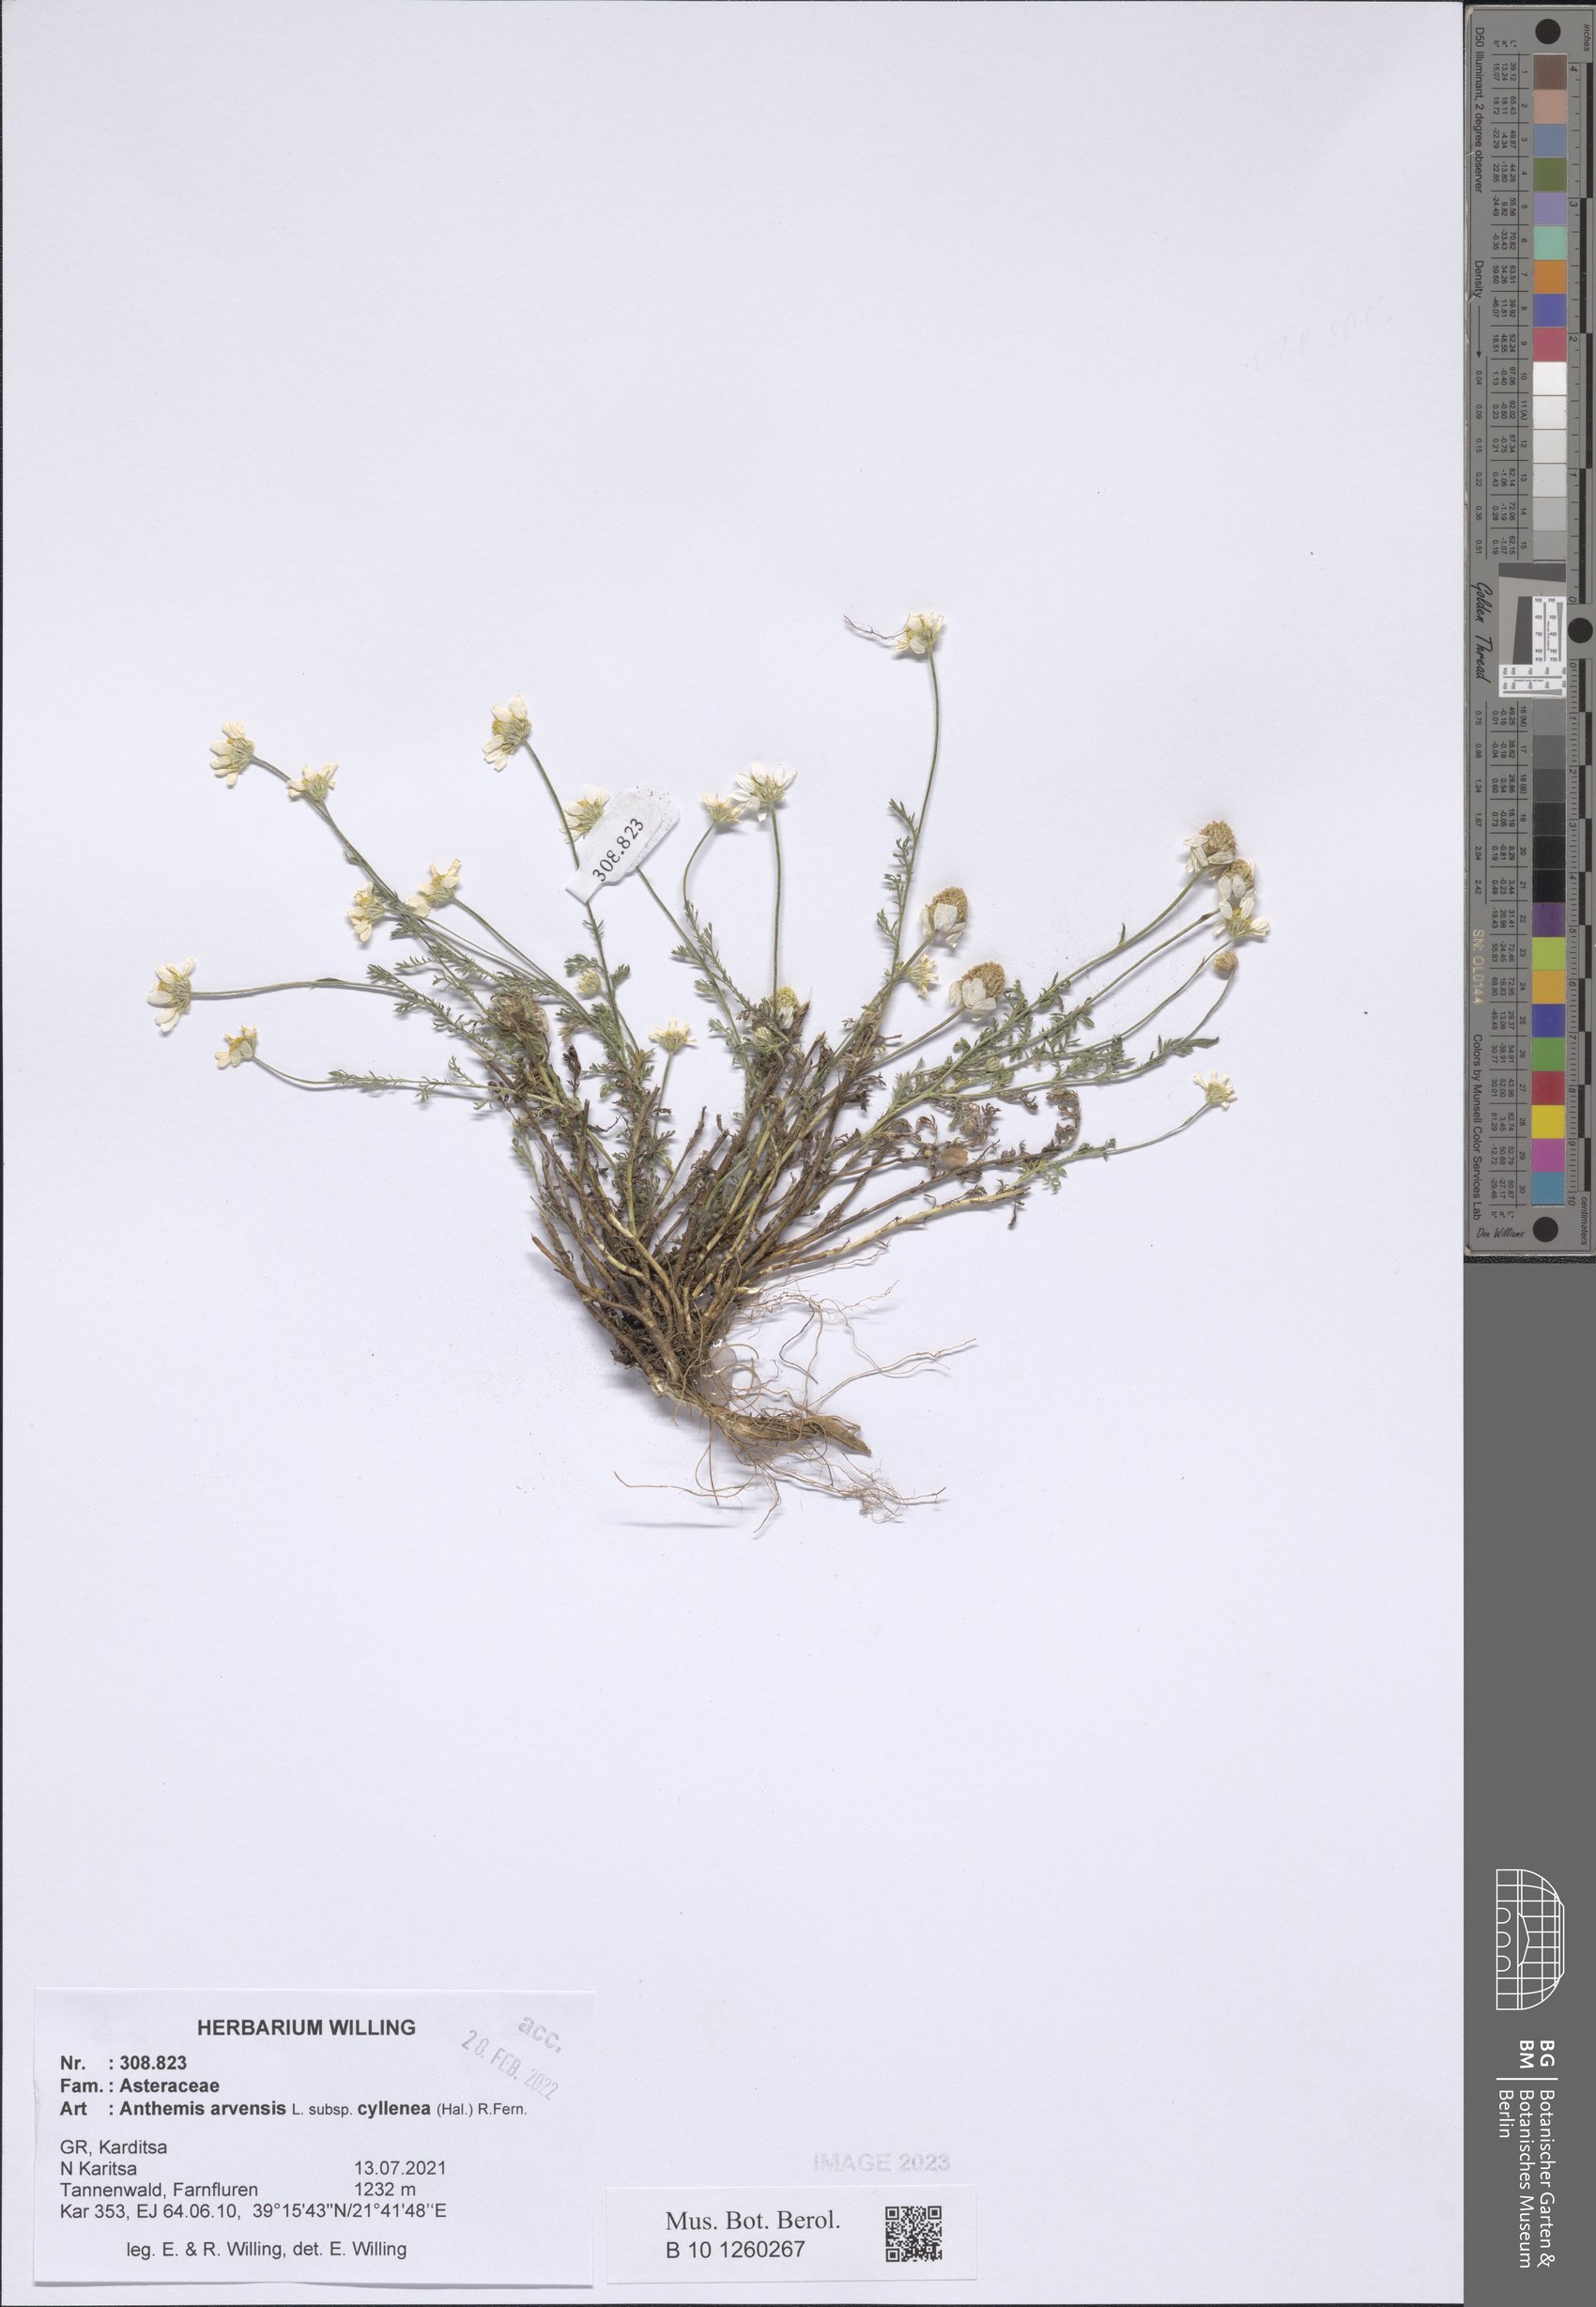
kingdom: Plantae
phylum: Tracheophyta
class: Magnoliopsida
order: Asterales
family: Asteraceae
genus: Anthemis
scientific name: Anthemis arvensis
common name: Corn chamomile
